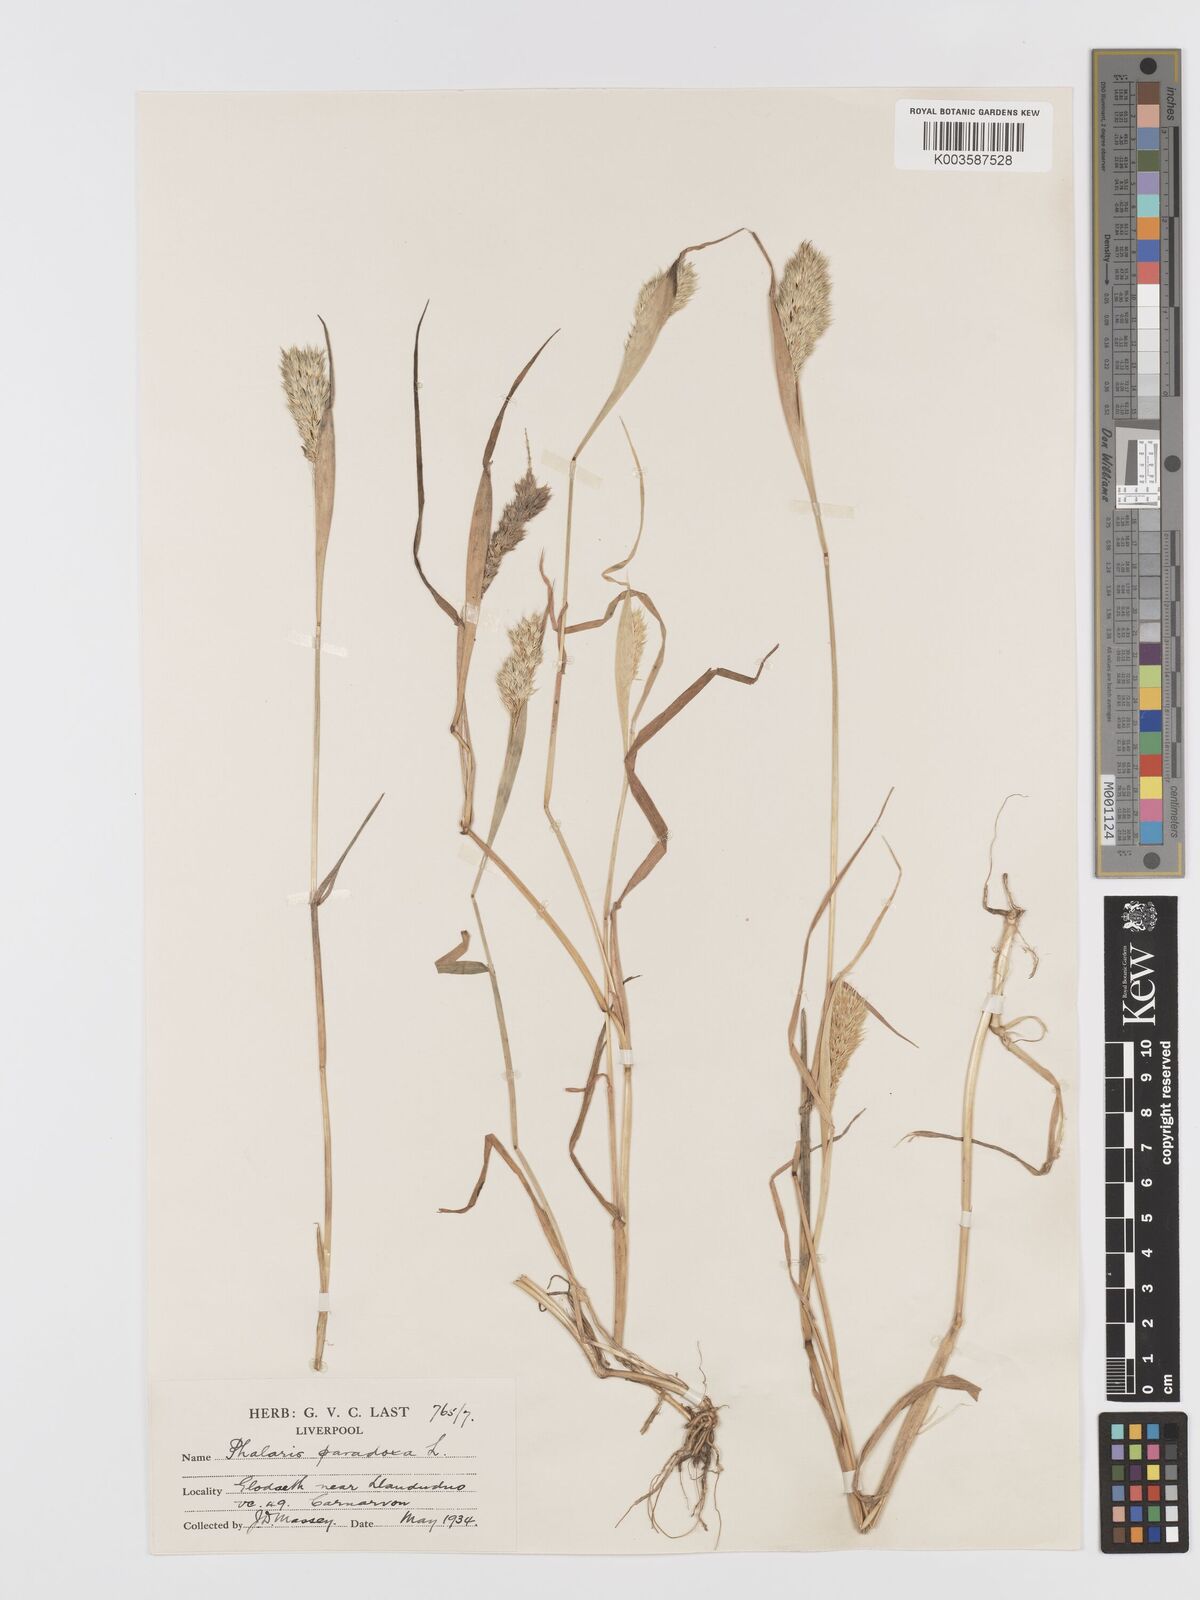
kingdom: Plantae
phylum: Tracheophyta
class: Liliopsida
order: Poales
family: Poaceae
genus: Phalaris
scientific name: Phalaris paradoxa
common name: Awned canary-grass
